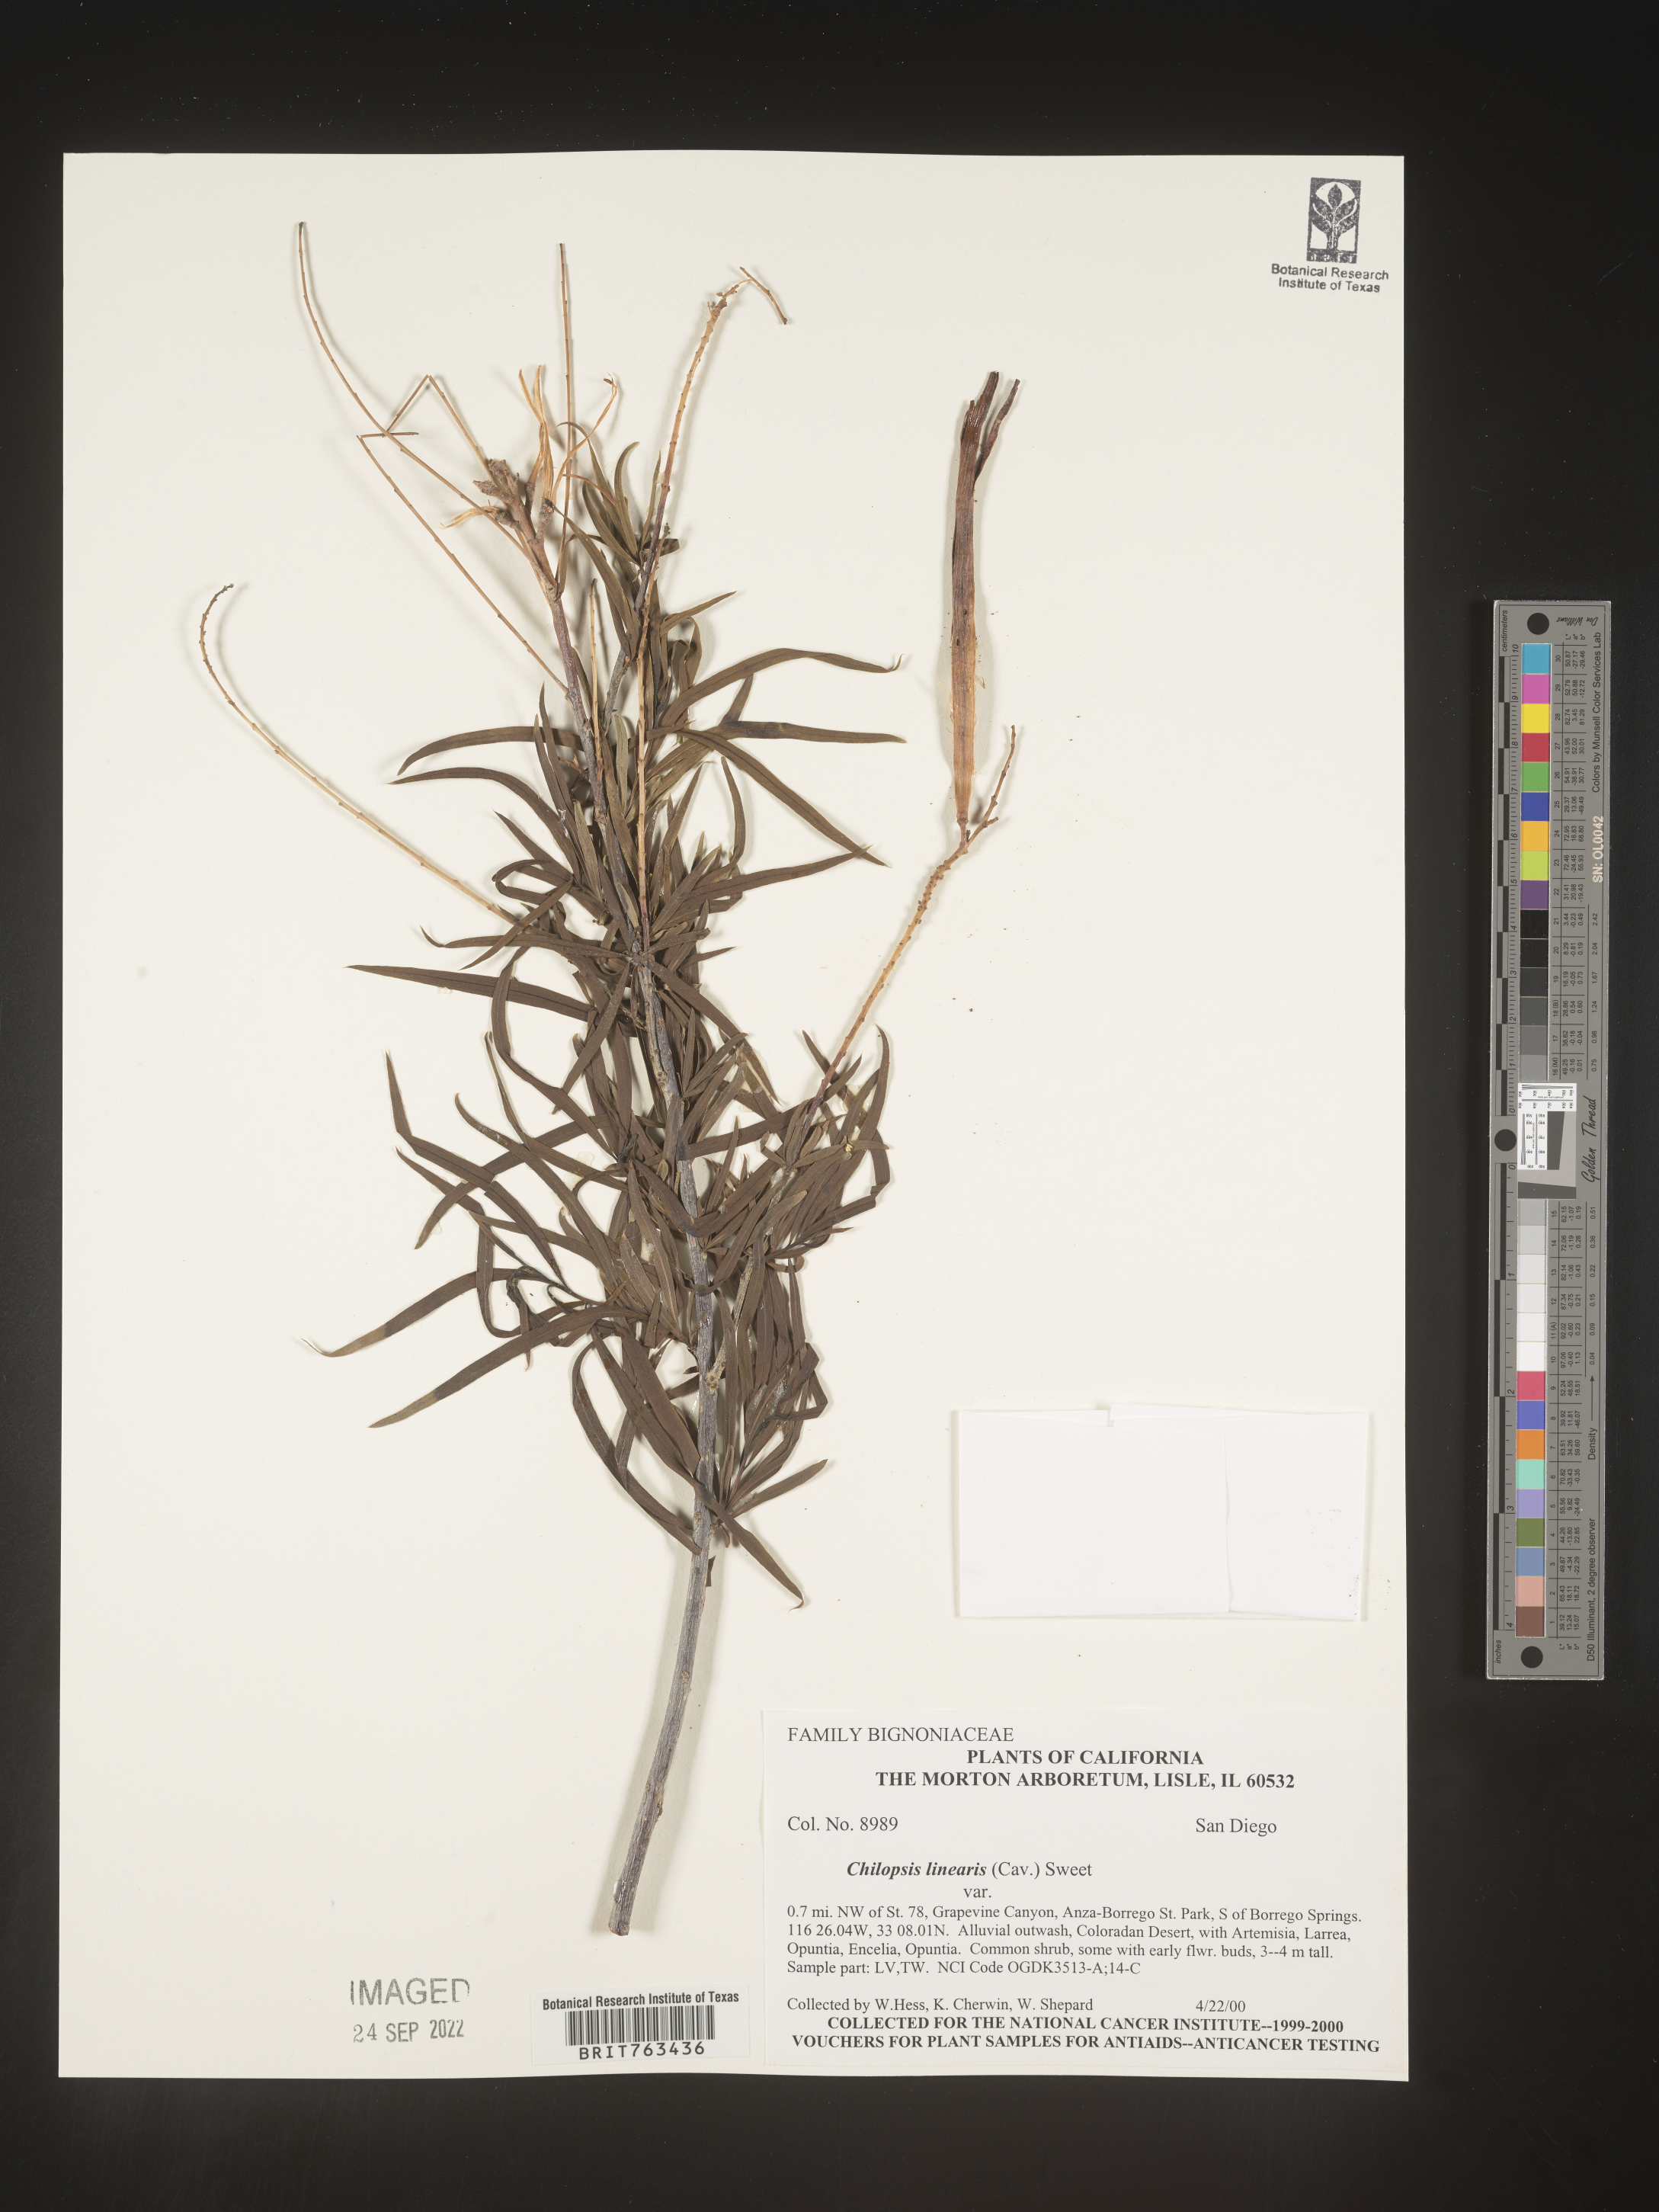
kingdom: Plantae
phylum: Tracheophyta
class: Magnoliopsida
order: Lamiales
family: Bignoniaceae
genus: Chilopsis
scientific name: Chilopsis linearis
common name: Desert-willow
